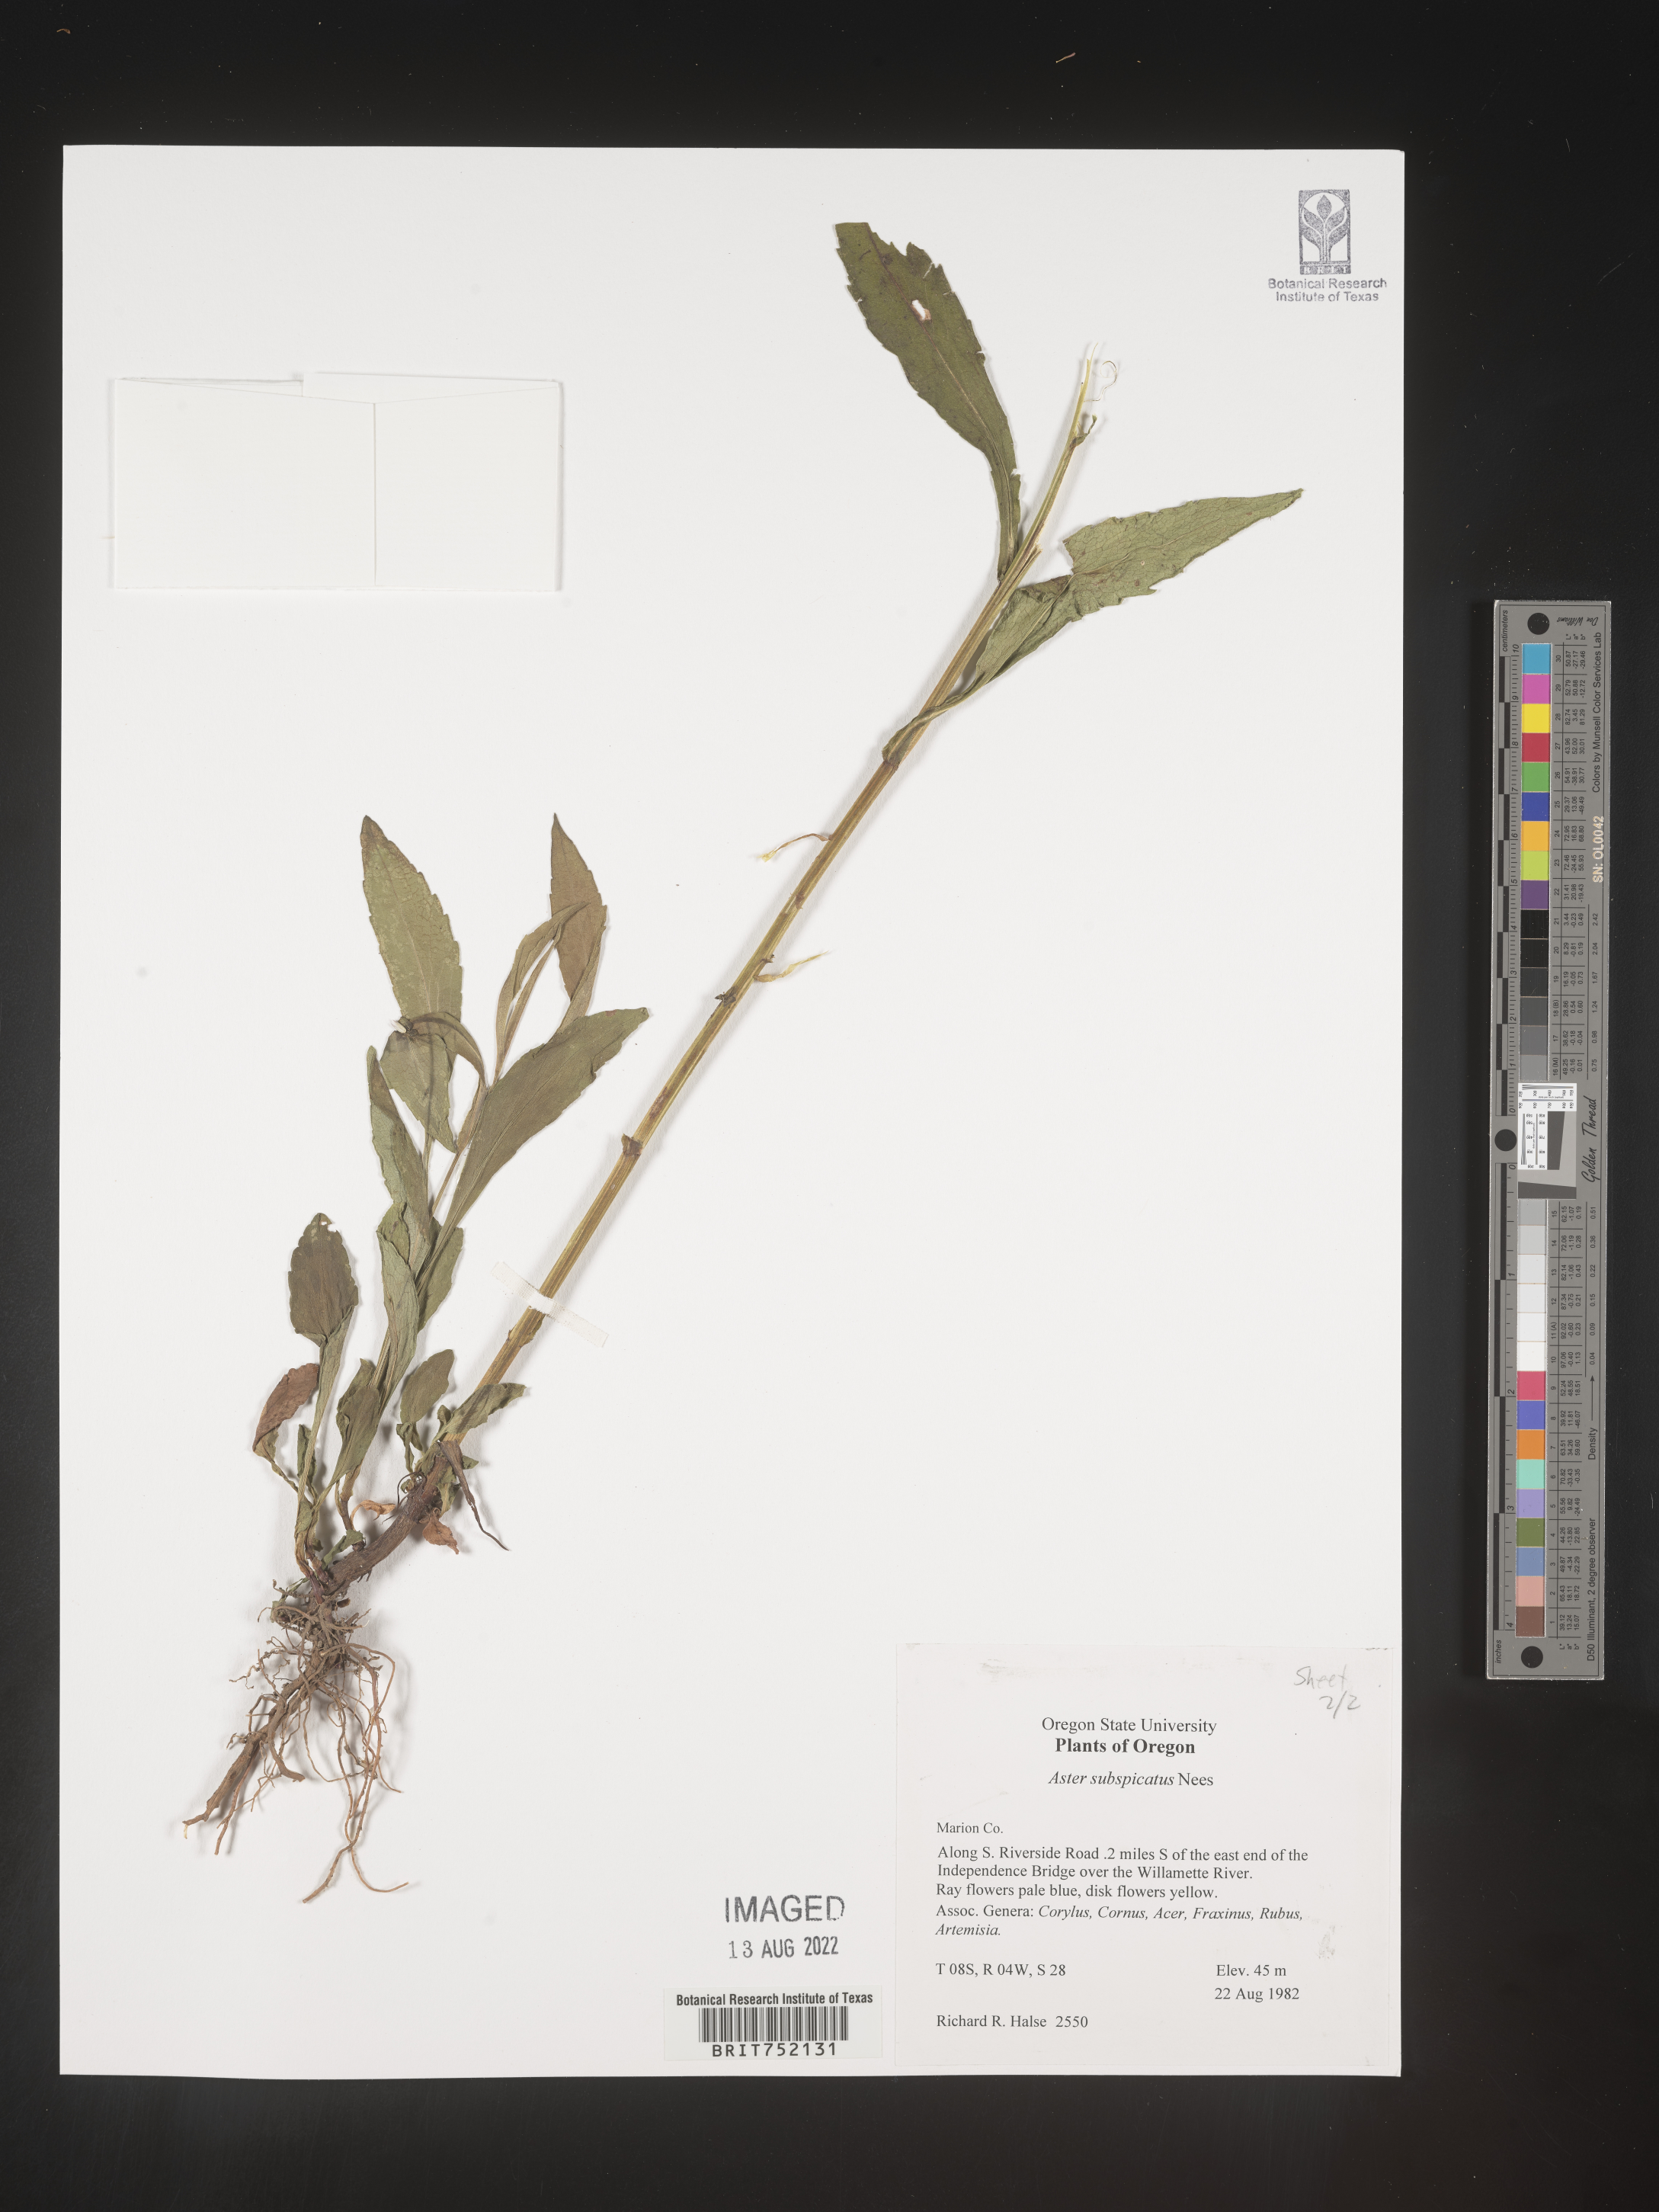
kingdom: Plantae
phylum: Tracheophyta
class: Magnoliopsida
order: Asterales
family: Asteraceae
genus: Symphyotrichum
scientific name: Symphyotrichum subspicatum
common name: Douglas' aster
